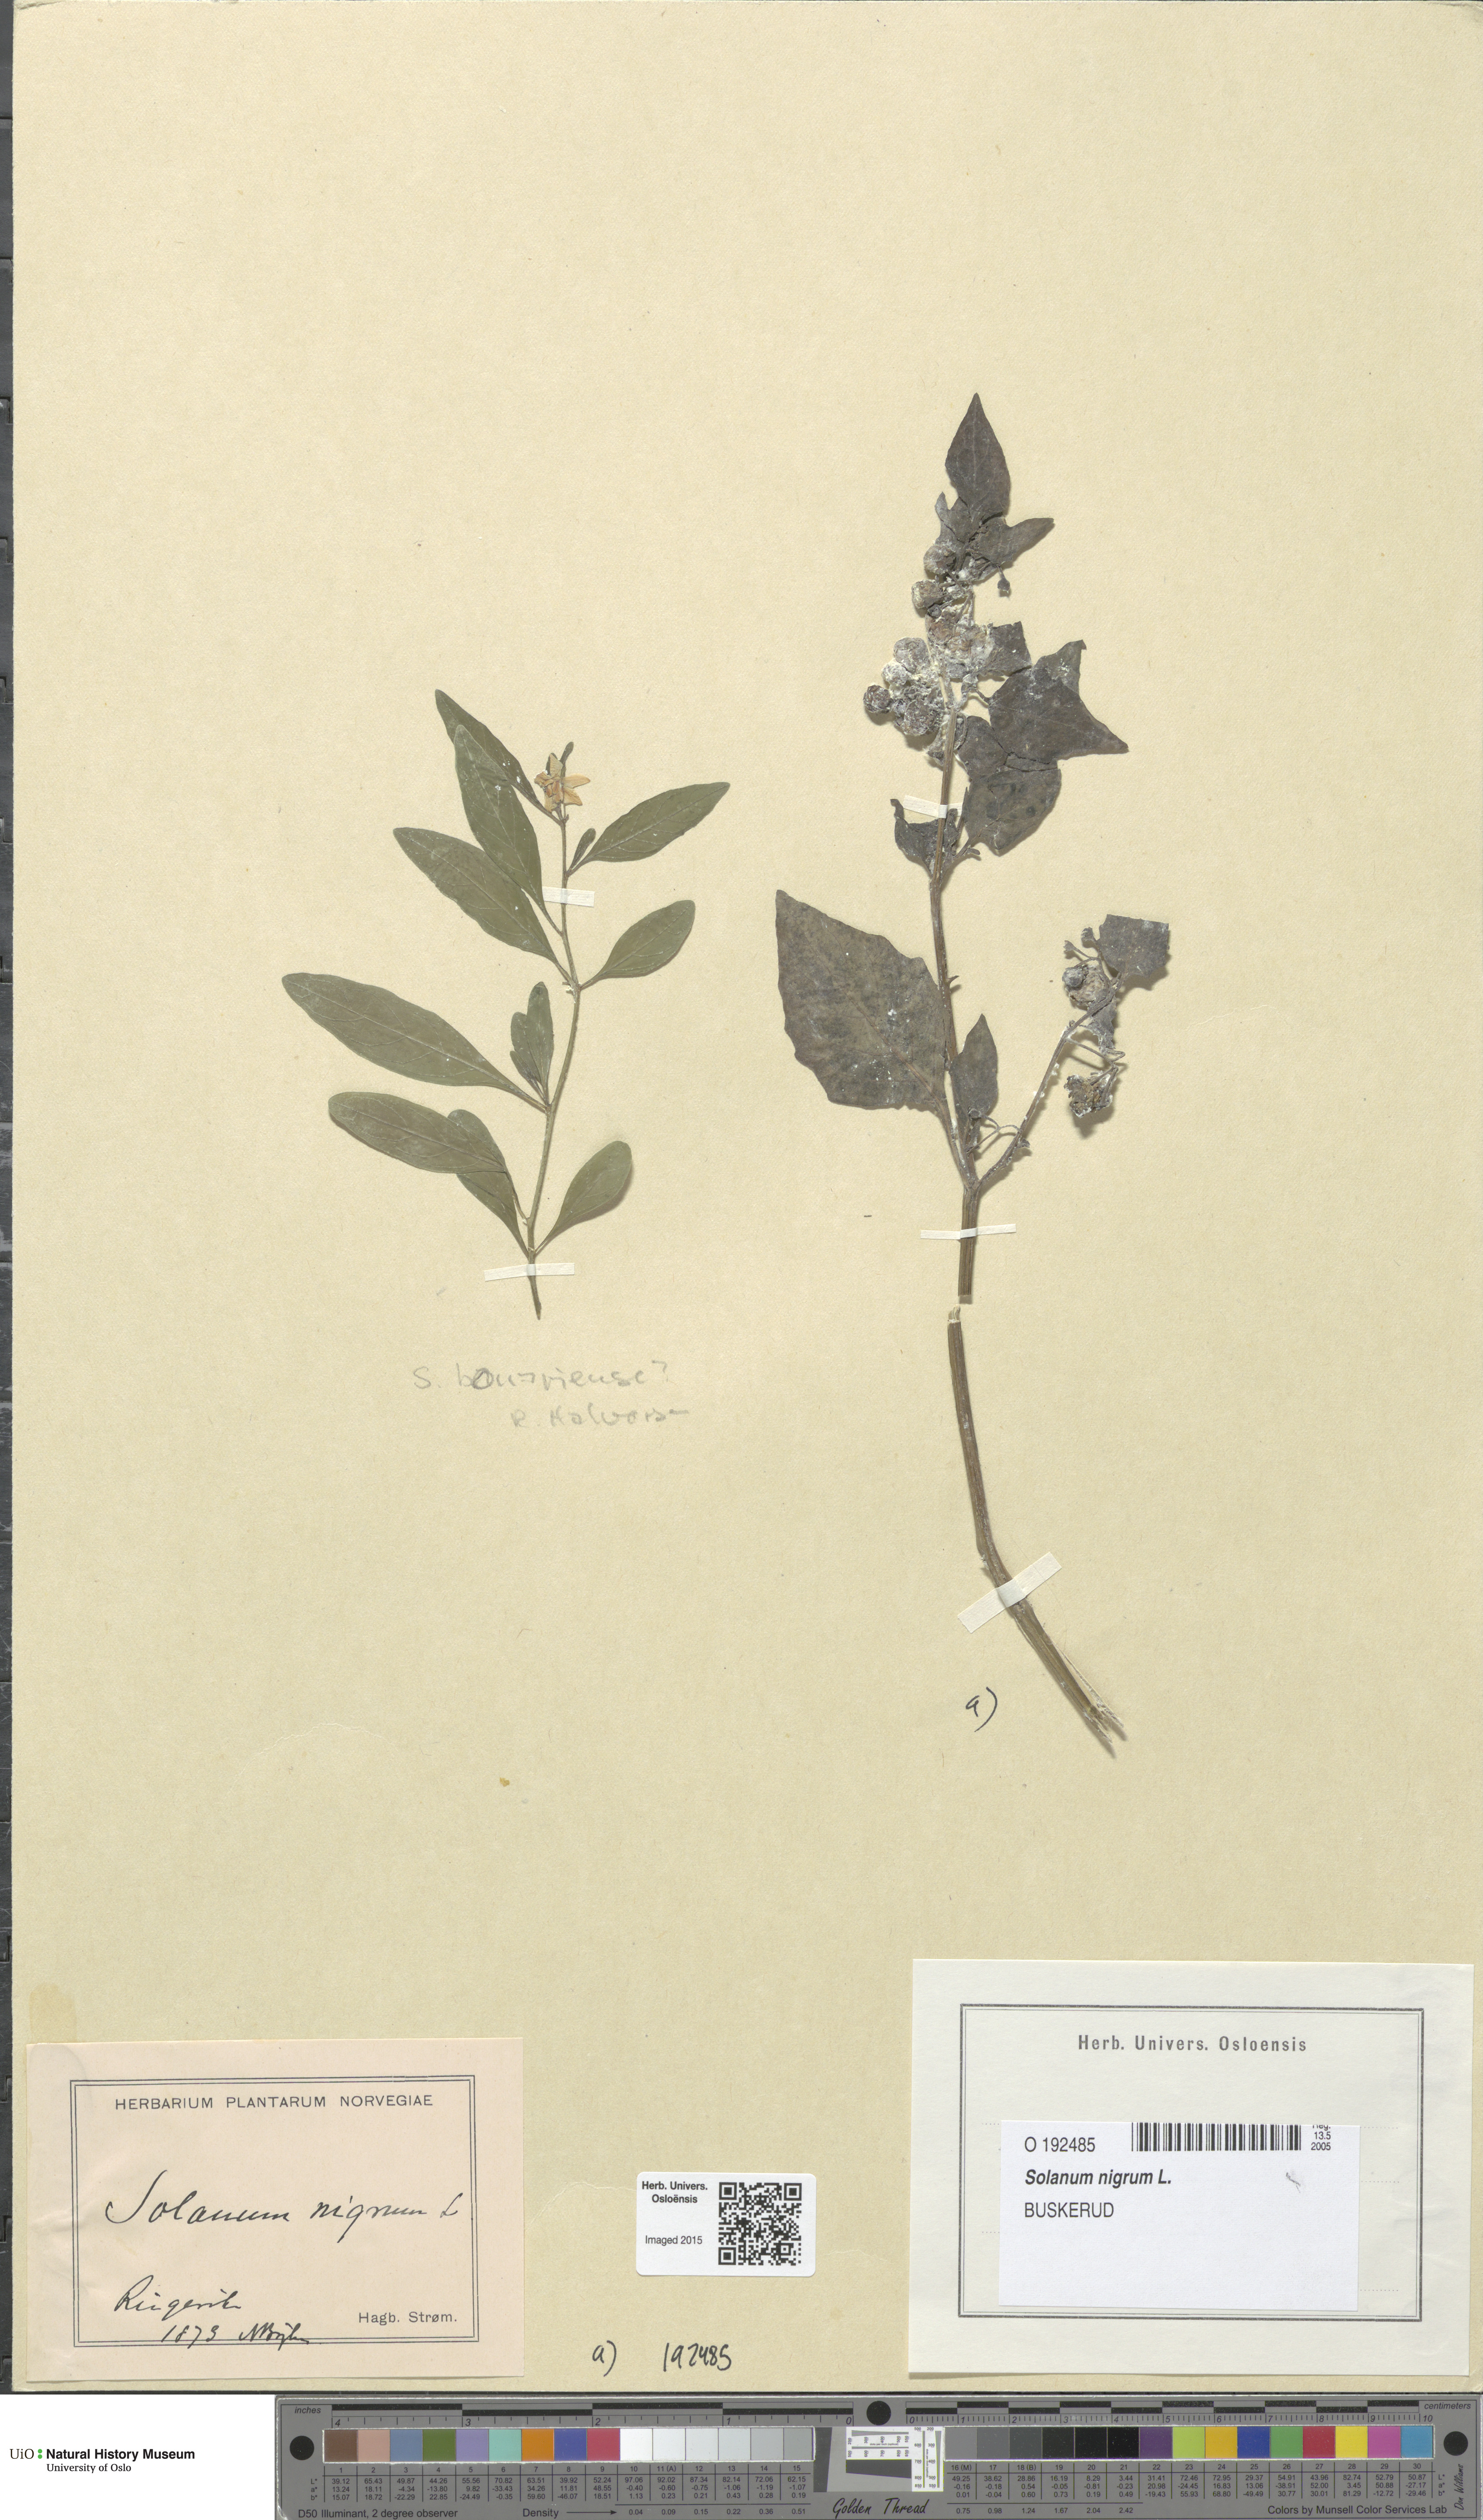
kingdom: Plantae
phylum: Tracheophyta
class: Magnoliopsida
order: Solanales
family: Solanaceae
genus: Solanum
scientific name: Solanum nigrum
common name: Black nightshade
